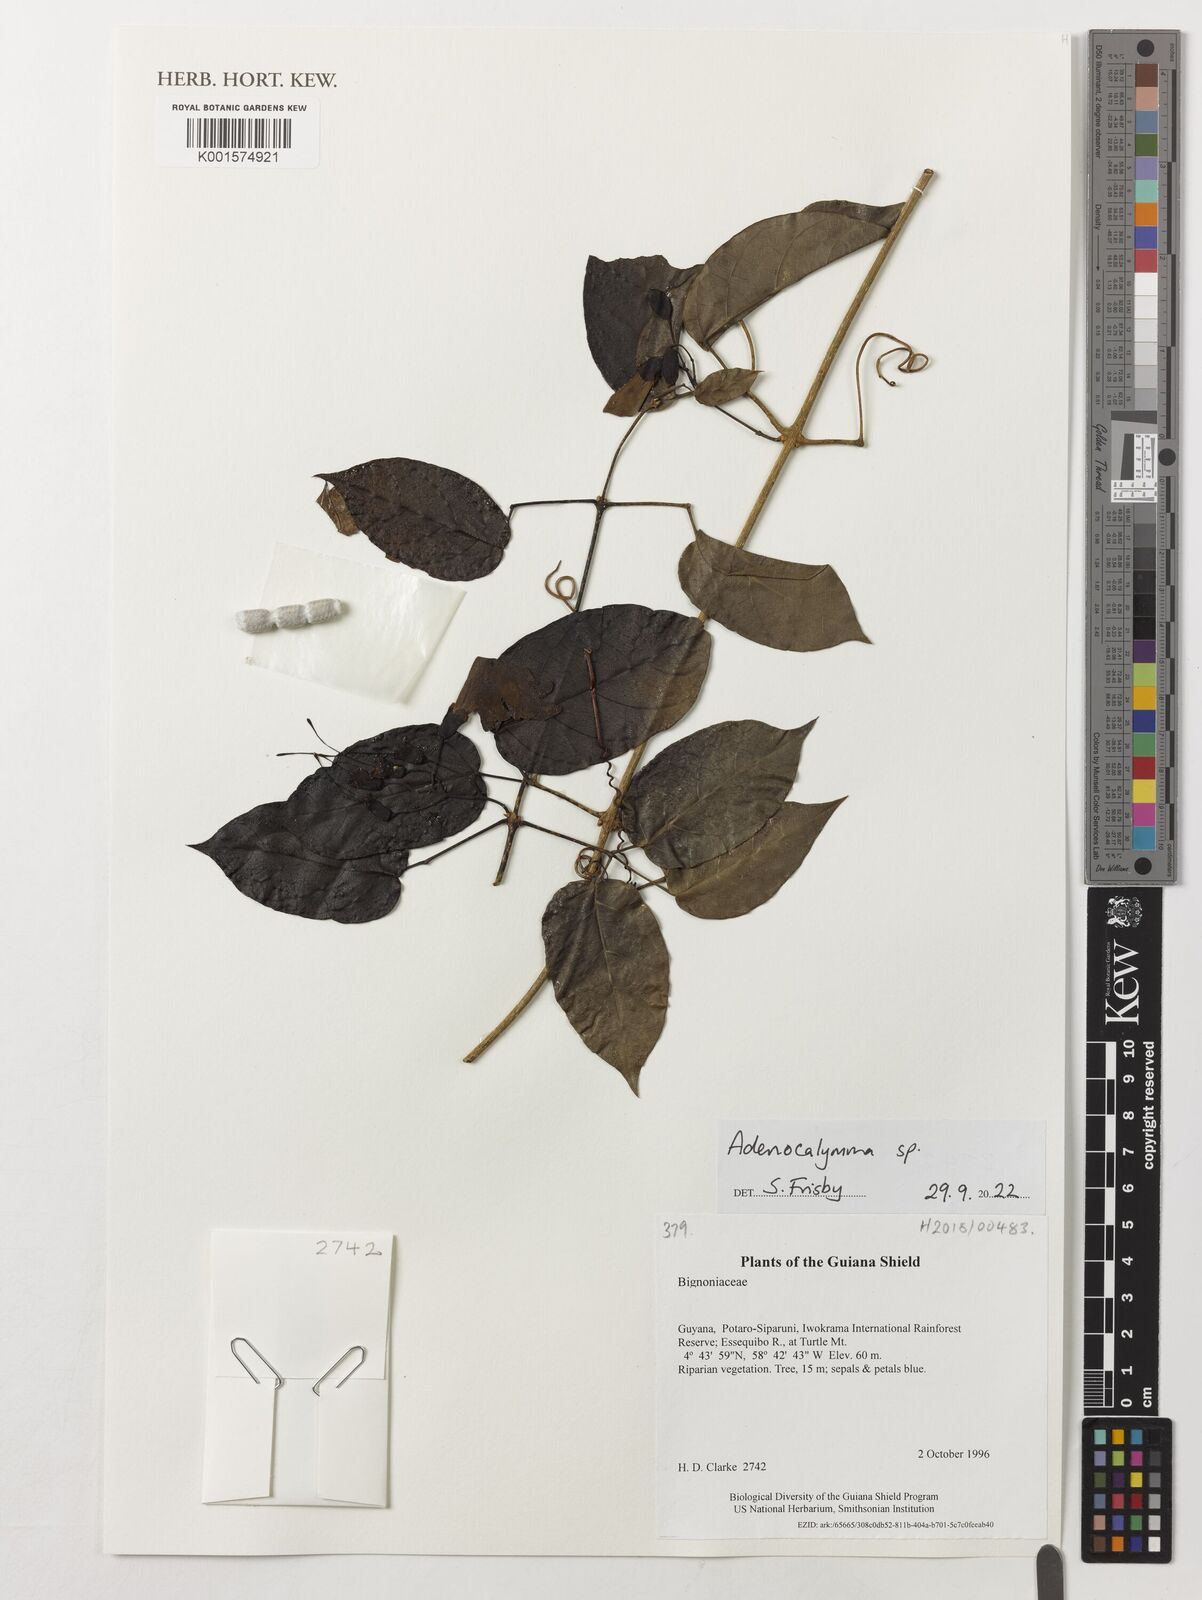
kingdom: Plantae
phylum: Tracheophyta
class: Magnoliopsida
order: Lamiales
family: Bignoniaceae
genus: Adenocalymma
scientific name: Adenocalymma
